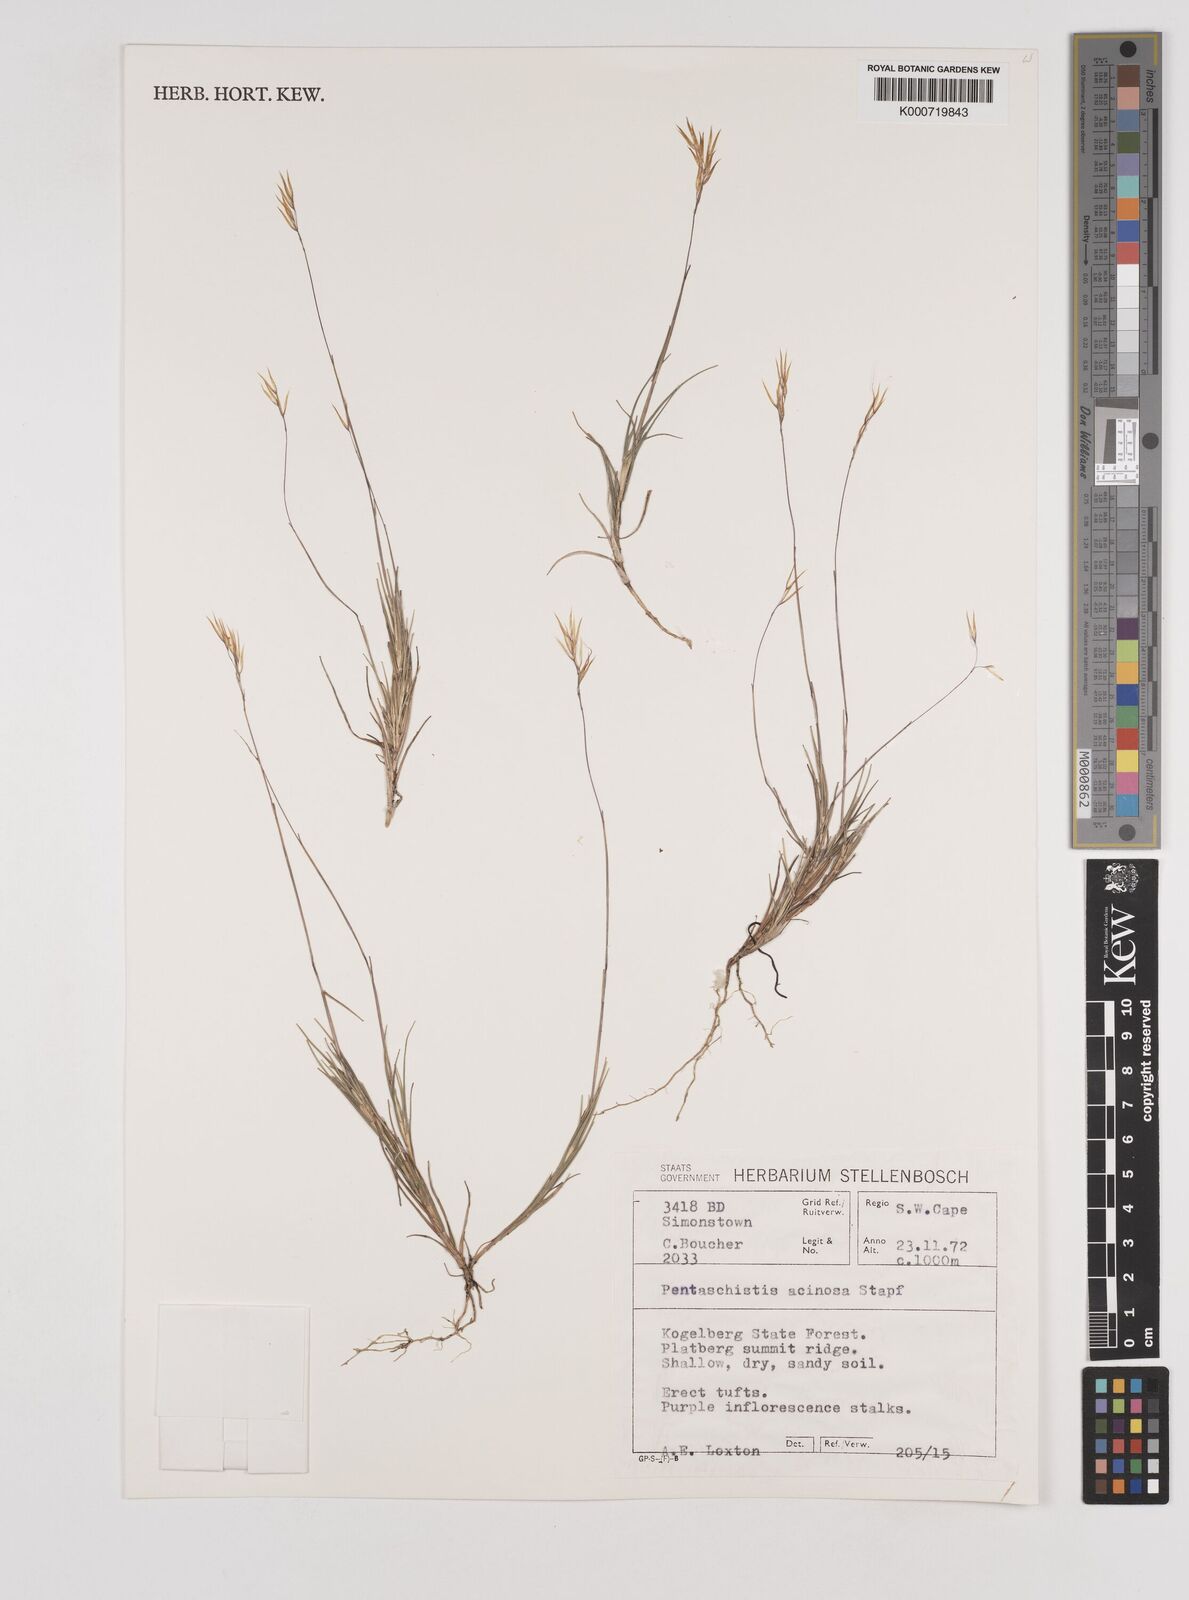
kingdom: Plantae
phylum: Tracheophyta
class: Liliopsida
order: Poales
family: Poaceae
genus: Pentaschistis
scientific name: Pentaschistis
